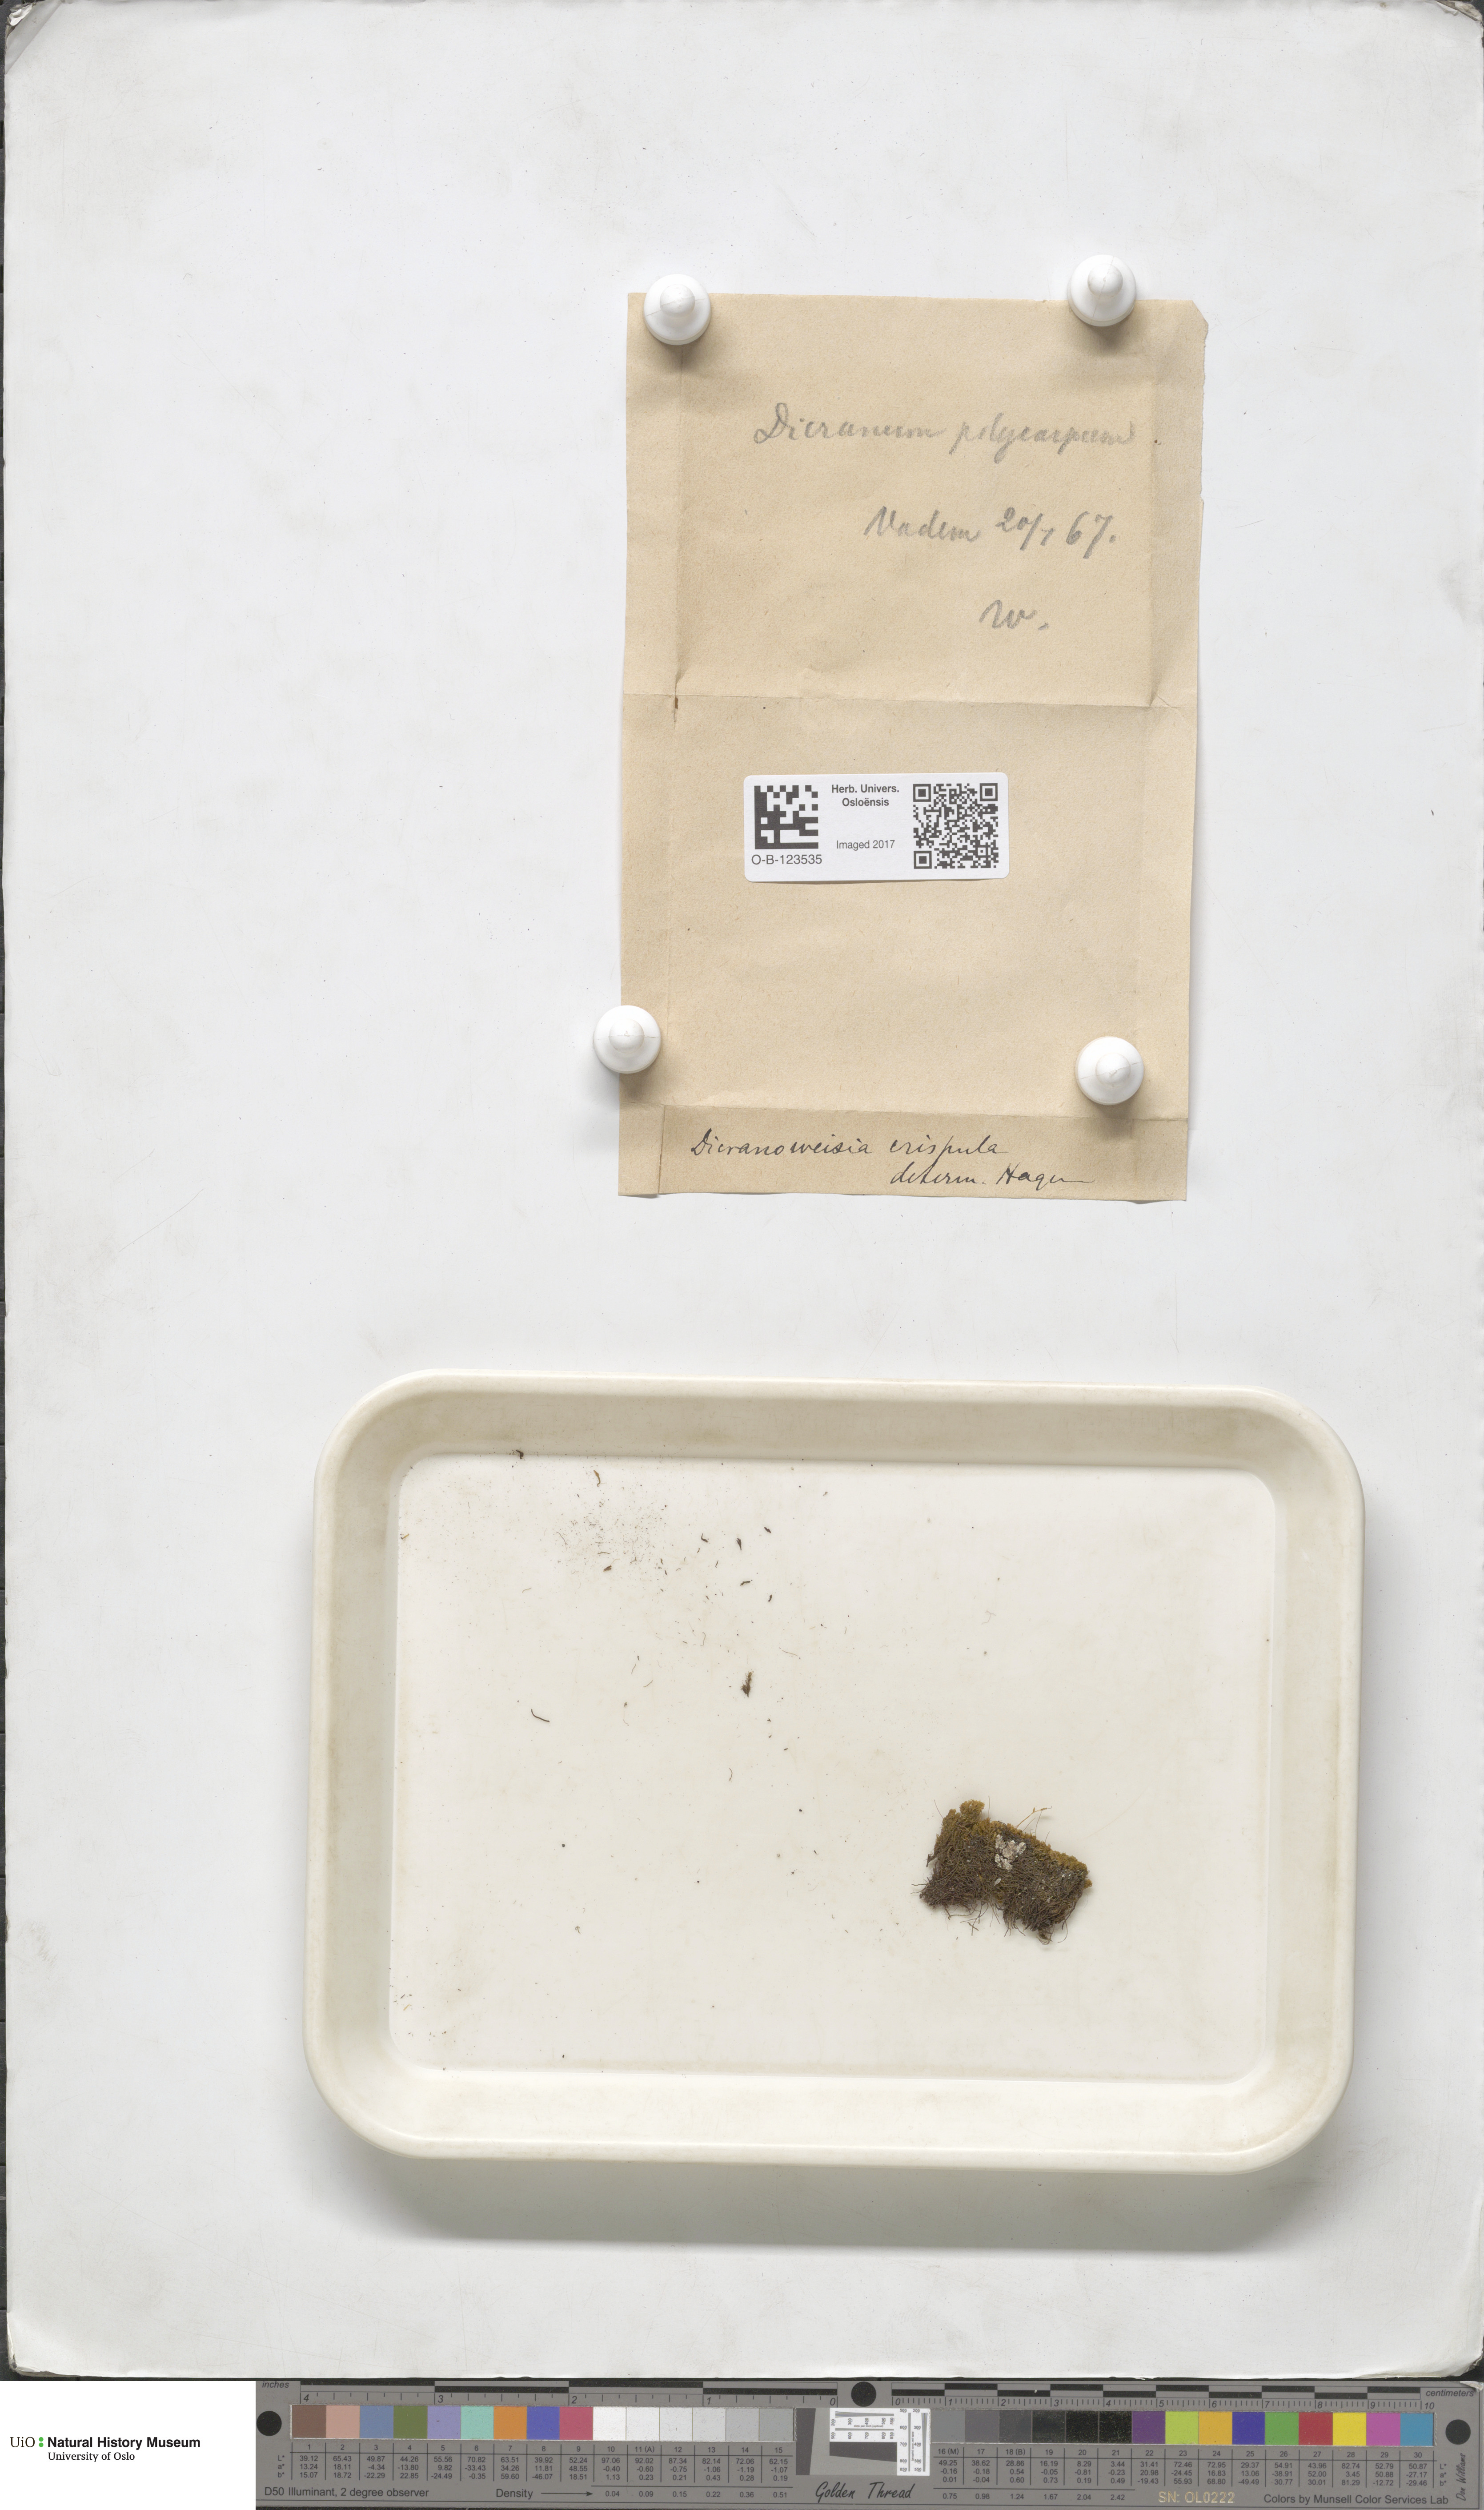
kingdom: Plantae
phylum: Bryophyta
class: Bryopsida
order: Scouleriales
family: Hymenolomataceae
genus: Hymenoloma
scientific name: Hymenoloma crispulum
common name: Mountain pincushion
